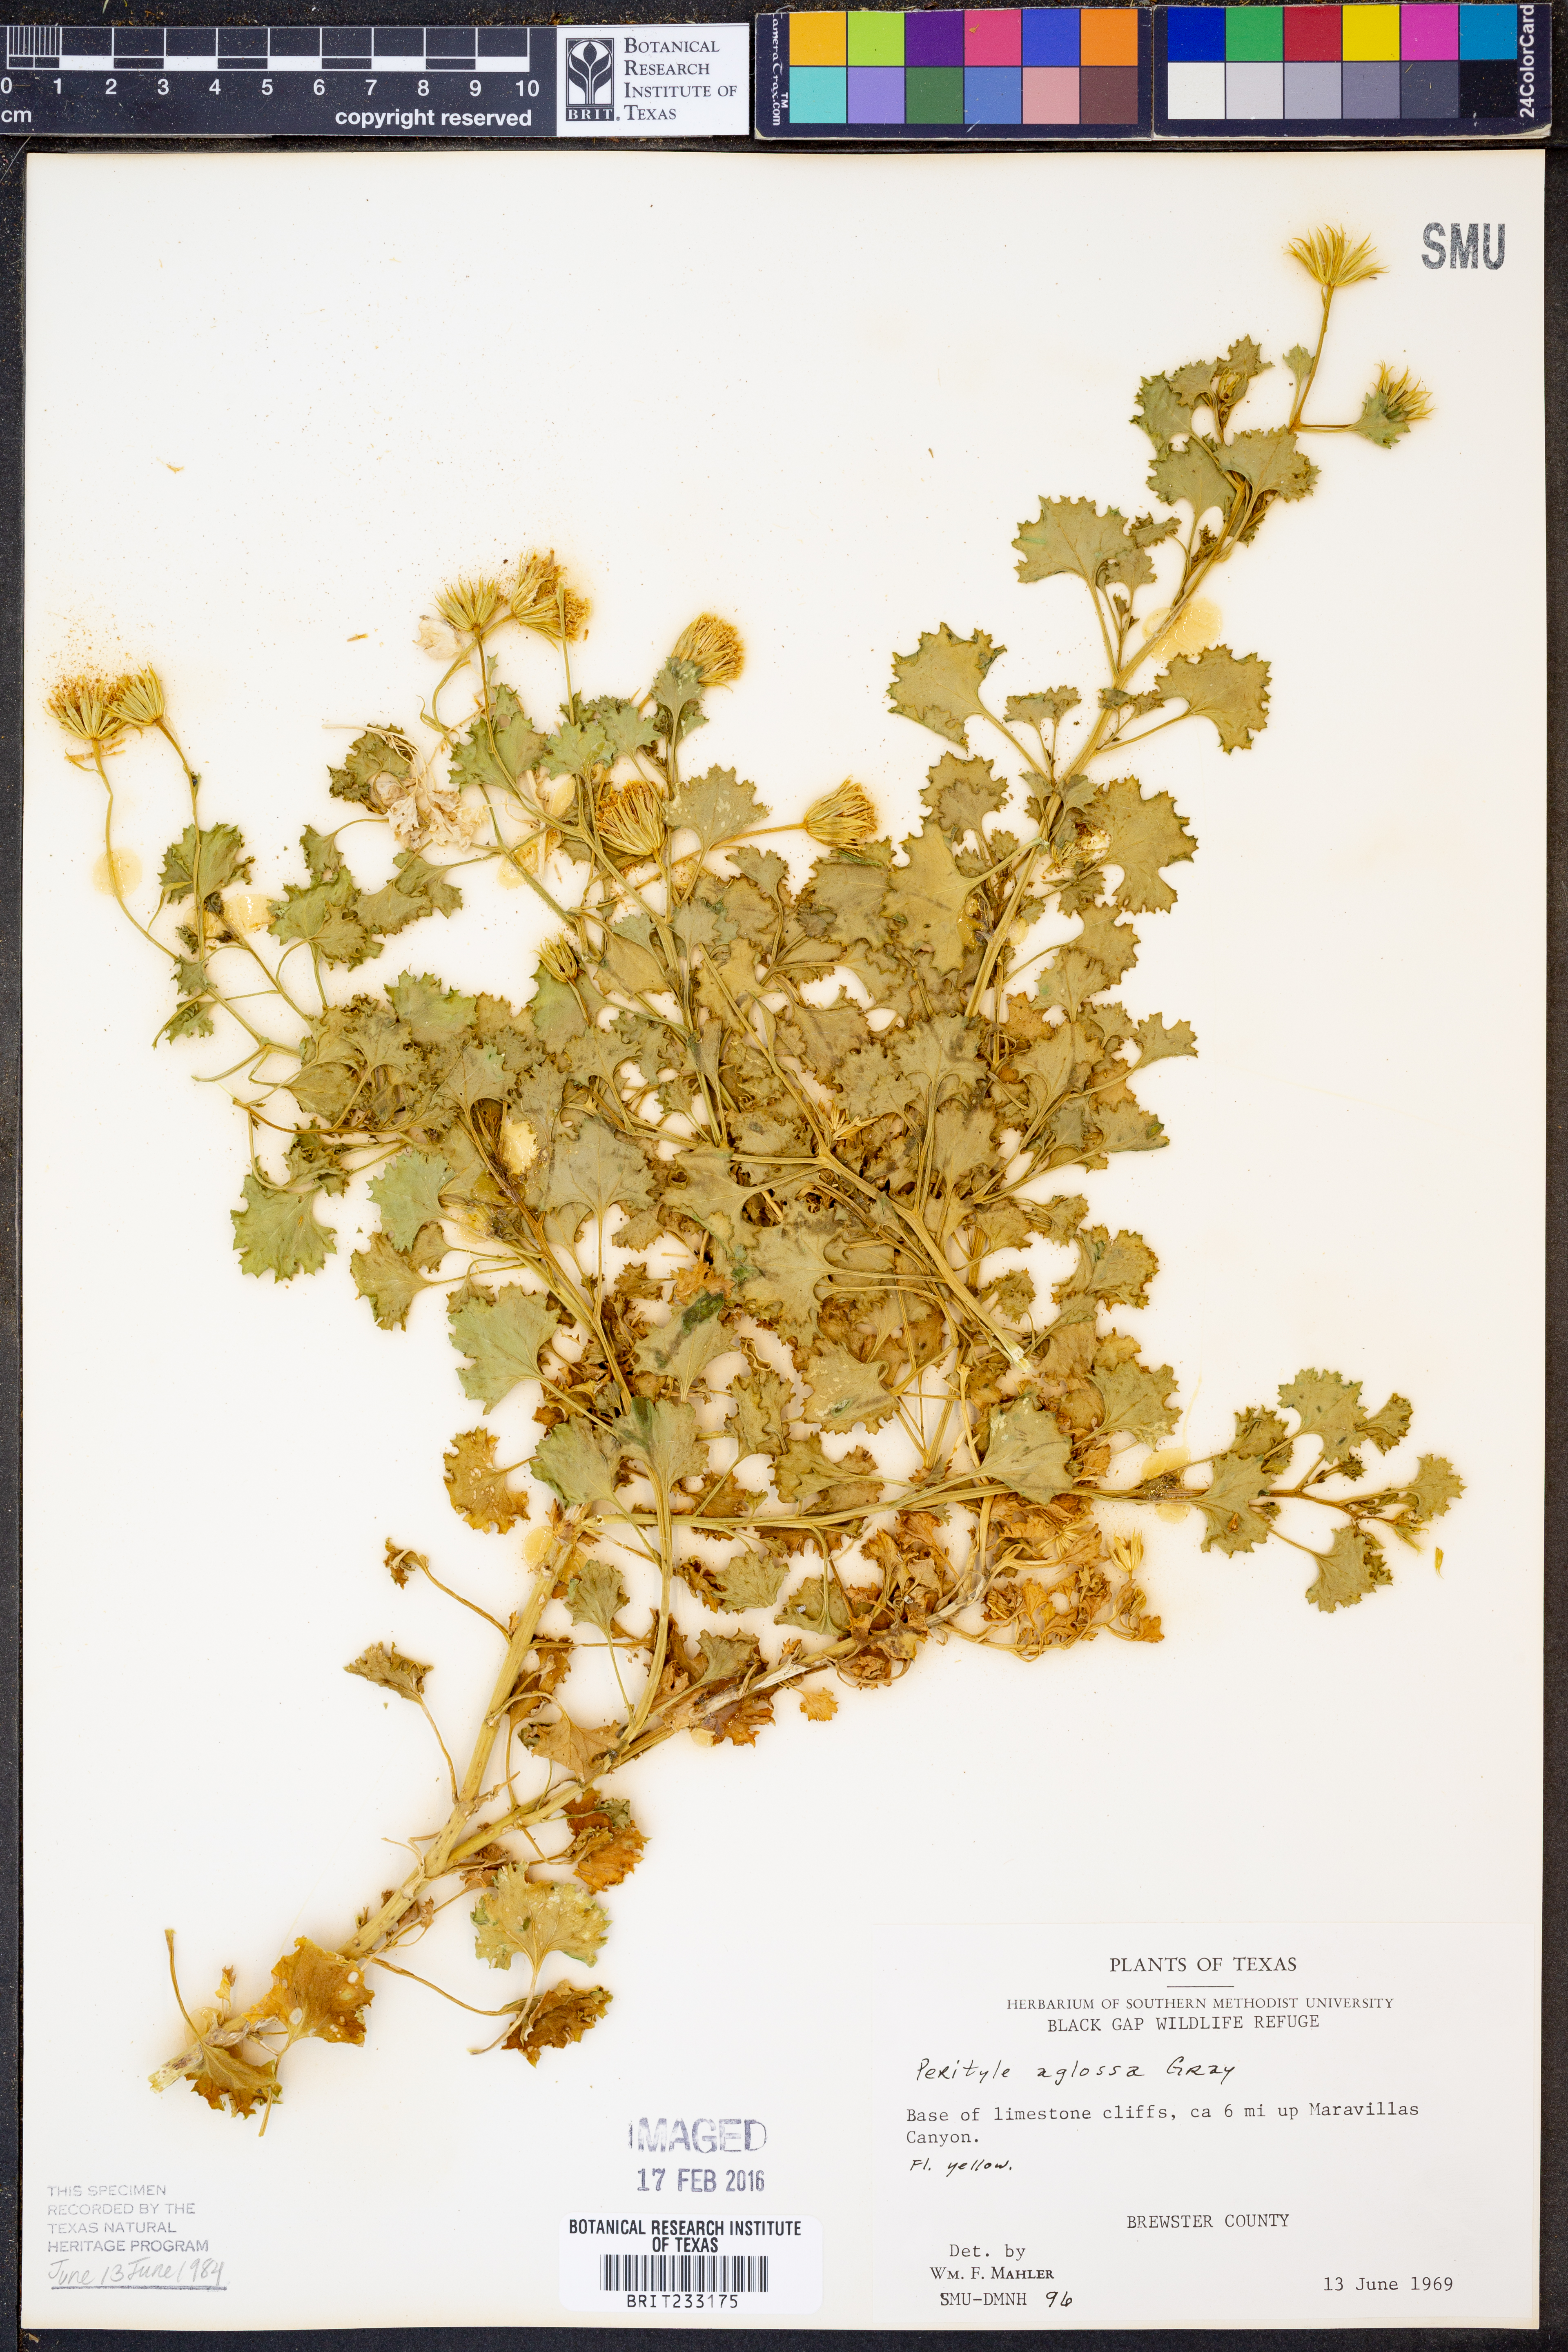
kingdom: Plantae
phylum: Tracheophyta
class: Magnoliopsida
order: Asterales
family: Asteraceae
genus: Laphamia
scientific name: Laphamia aglossa
